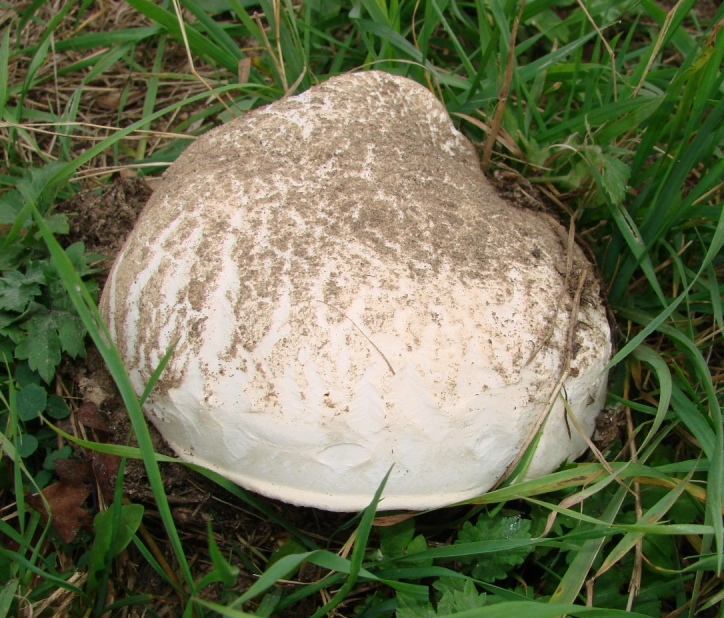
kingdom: Fungi
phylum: Basidiomycota
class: Agaricomycetes
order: Agaricales
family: Agaricaceae
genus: Agaricus
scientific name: Agaricus bernardii
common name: strandengs-champignon
